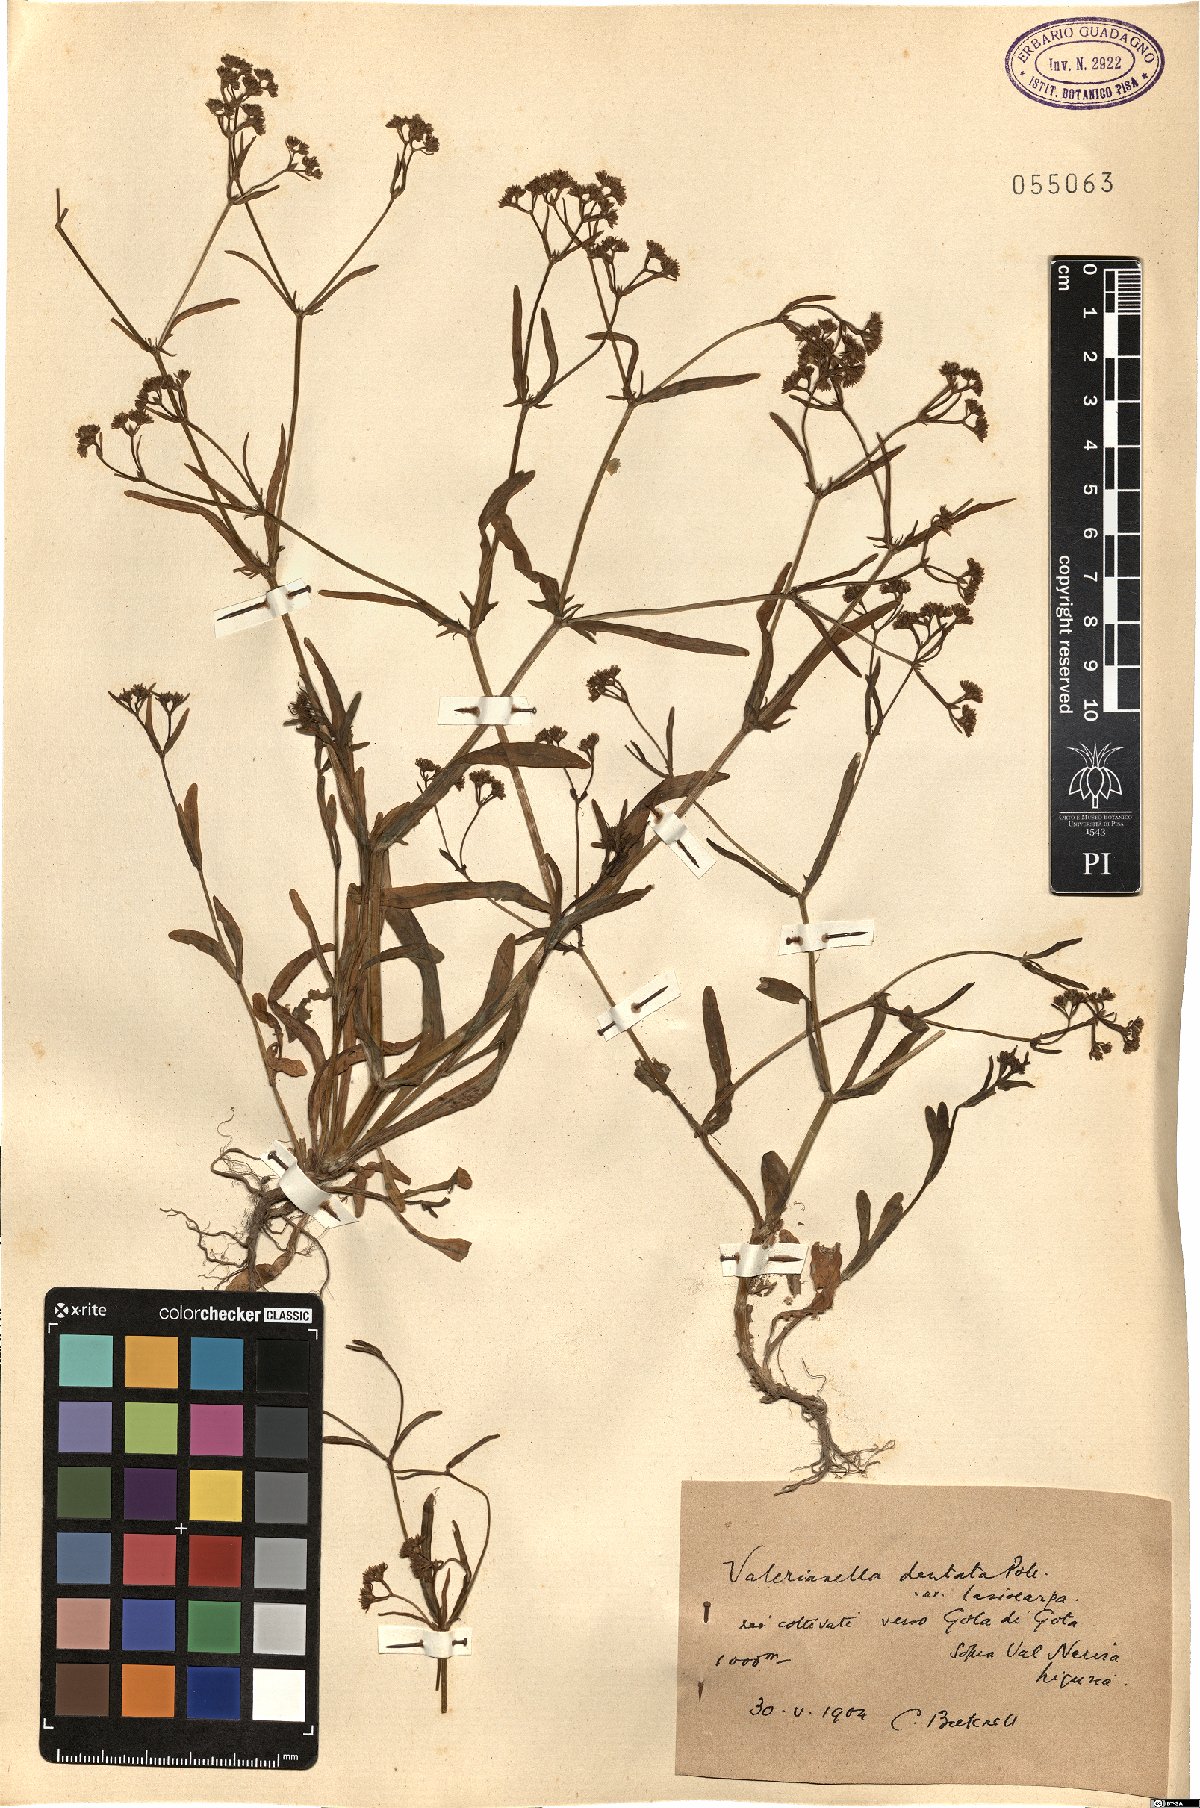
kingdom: Plantae
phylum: Tracheophyta
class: Magnoliopsida
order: Dipsacales
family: Caprifoliaceae
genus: Valerianella
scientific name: Valerianella dentata
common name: Narrow-fruited cornsalad
